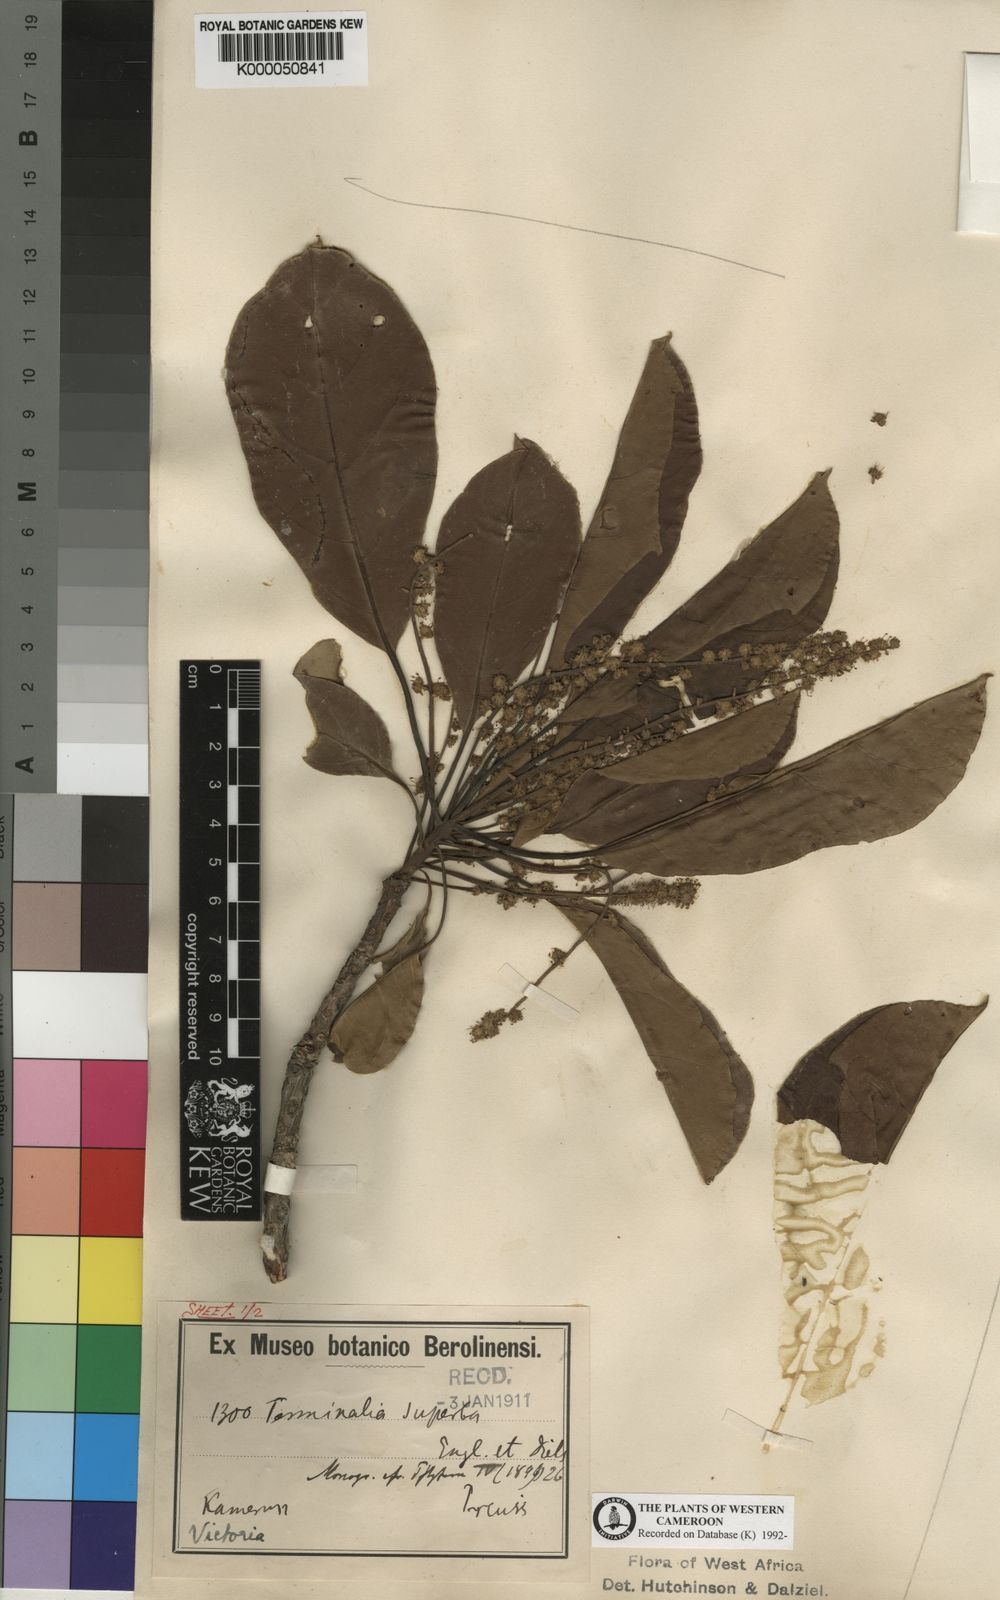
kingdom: Plantae
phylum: Tracheophyta
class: Magnoliopsida
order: Myrtales
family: Combretaceae
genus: Terminalia
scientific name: Terminalia superba
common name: White afara
